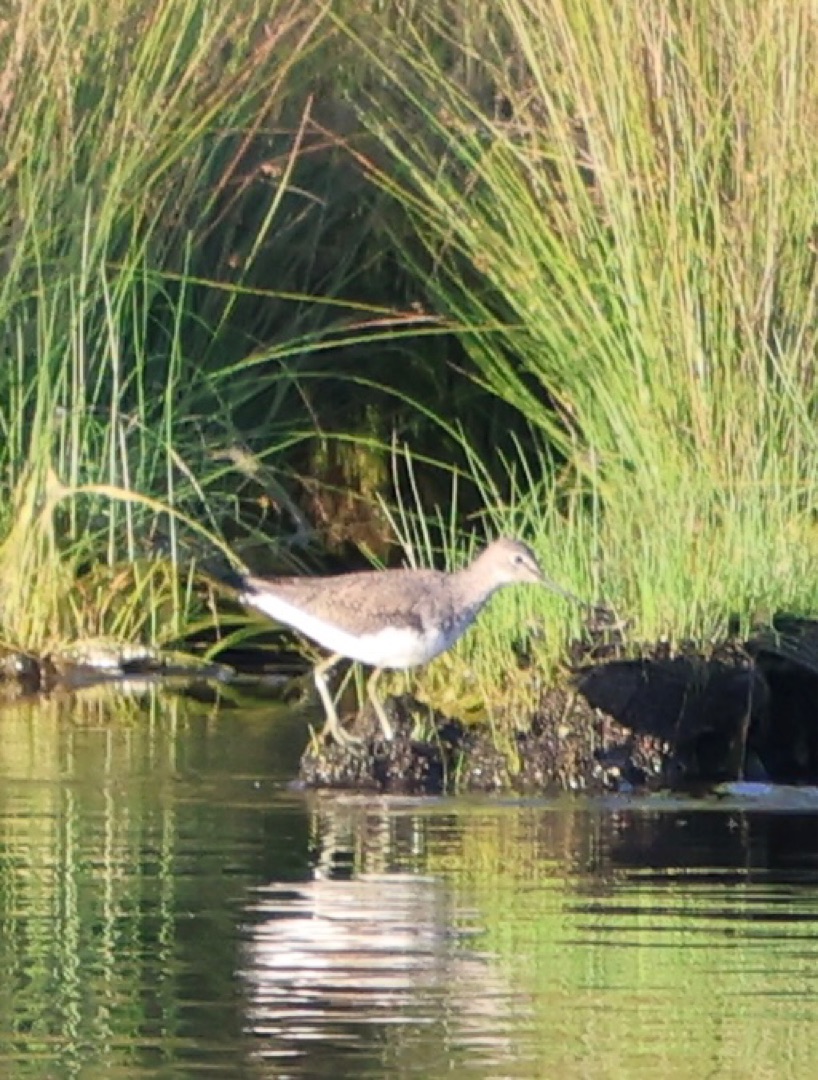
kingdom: Animalia
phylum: Chordata
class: Aves
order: Charadriiformes
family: Scolopacidae
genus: Tringa
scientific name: Tringa ochropus
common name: Svaleklire
